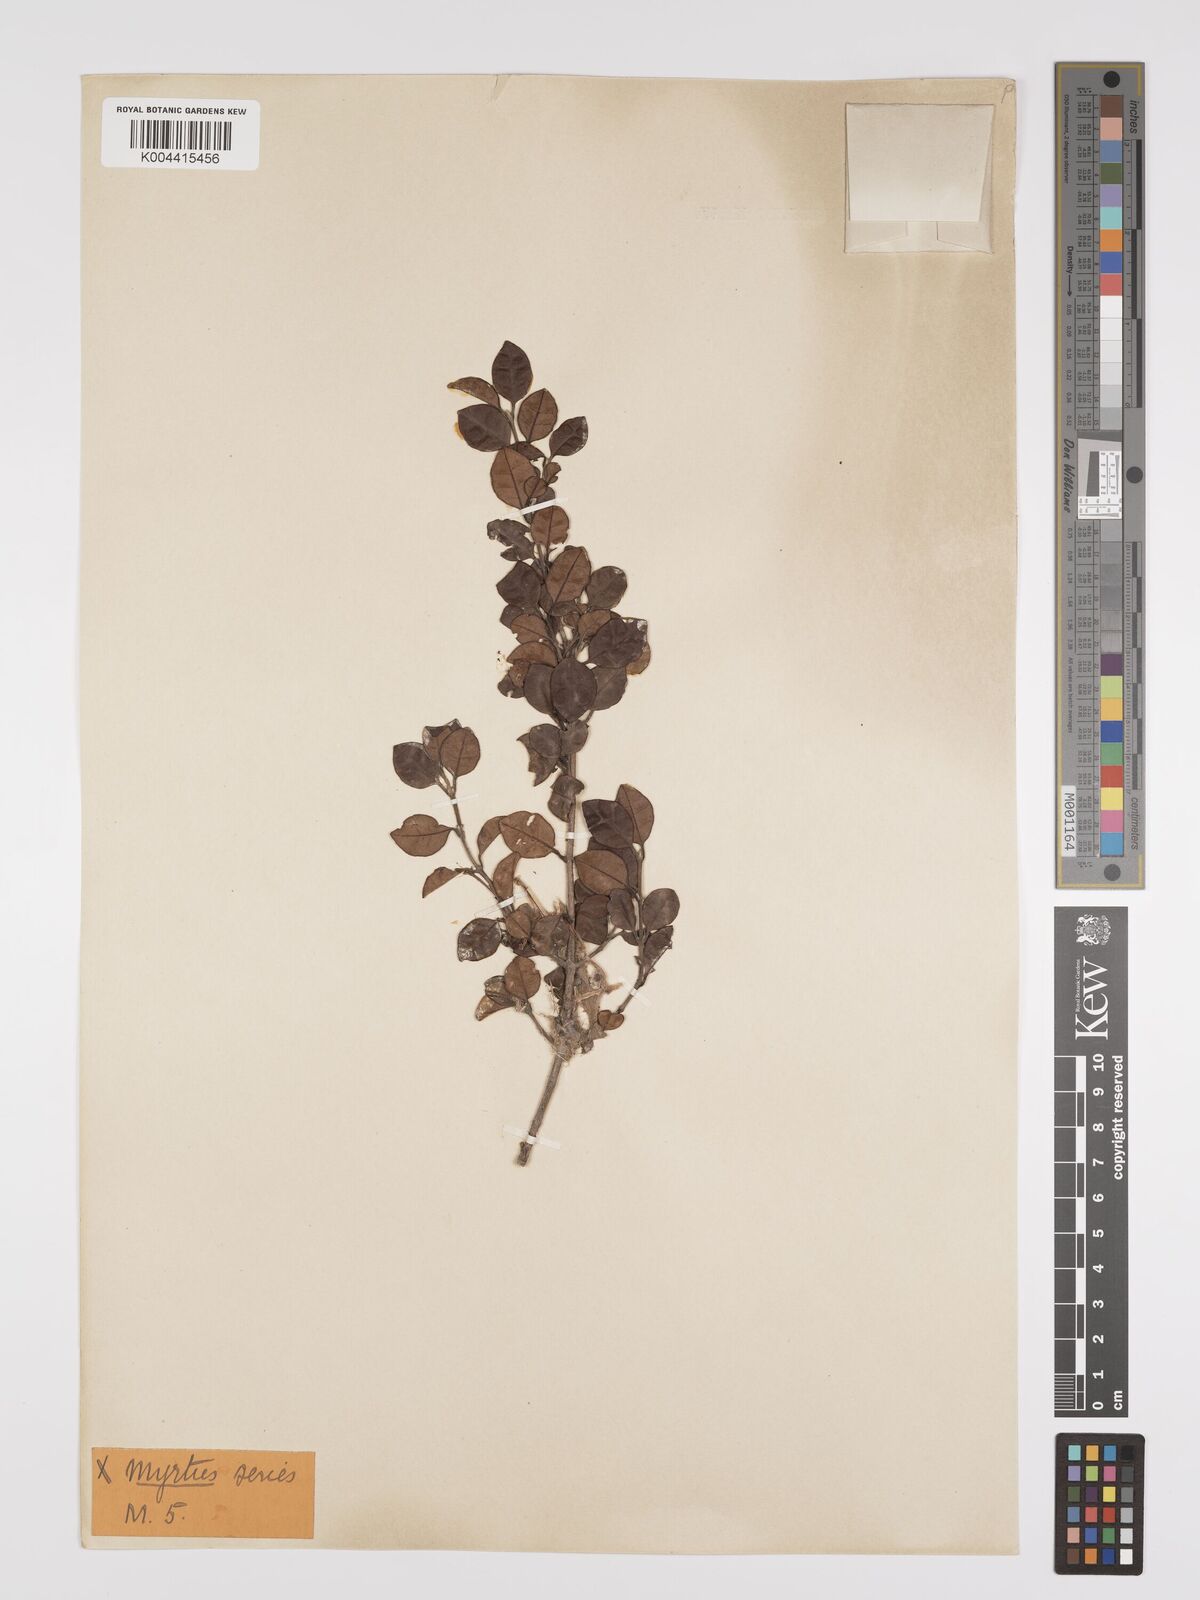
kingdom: Plantae
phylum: Tracheophyta
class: Magnoliopsida
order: Myrtales
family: Myrtaceae
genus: Lophomyrtus
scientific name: Lophomyrtus bullata
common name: Rama rama
